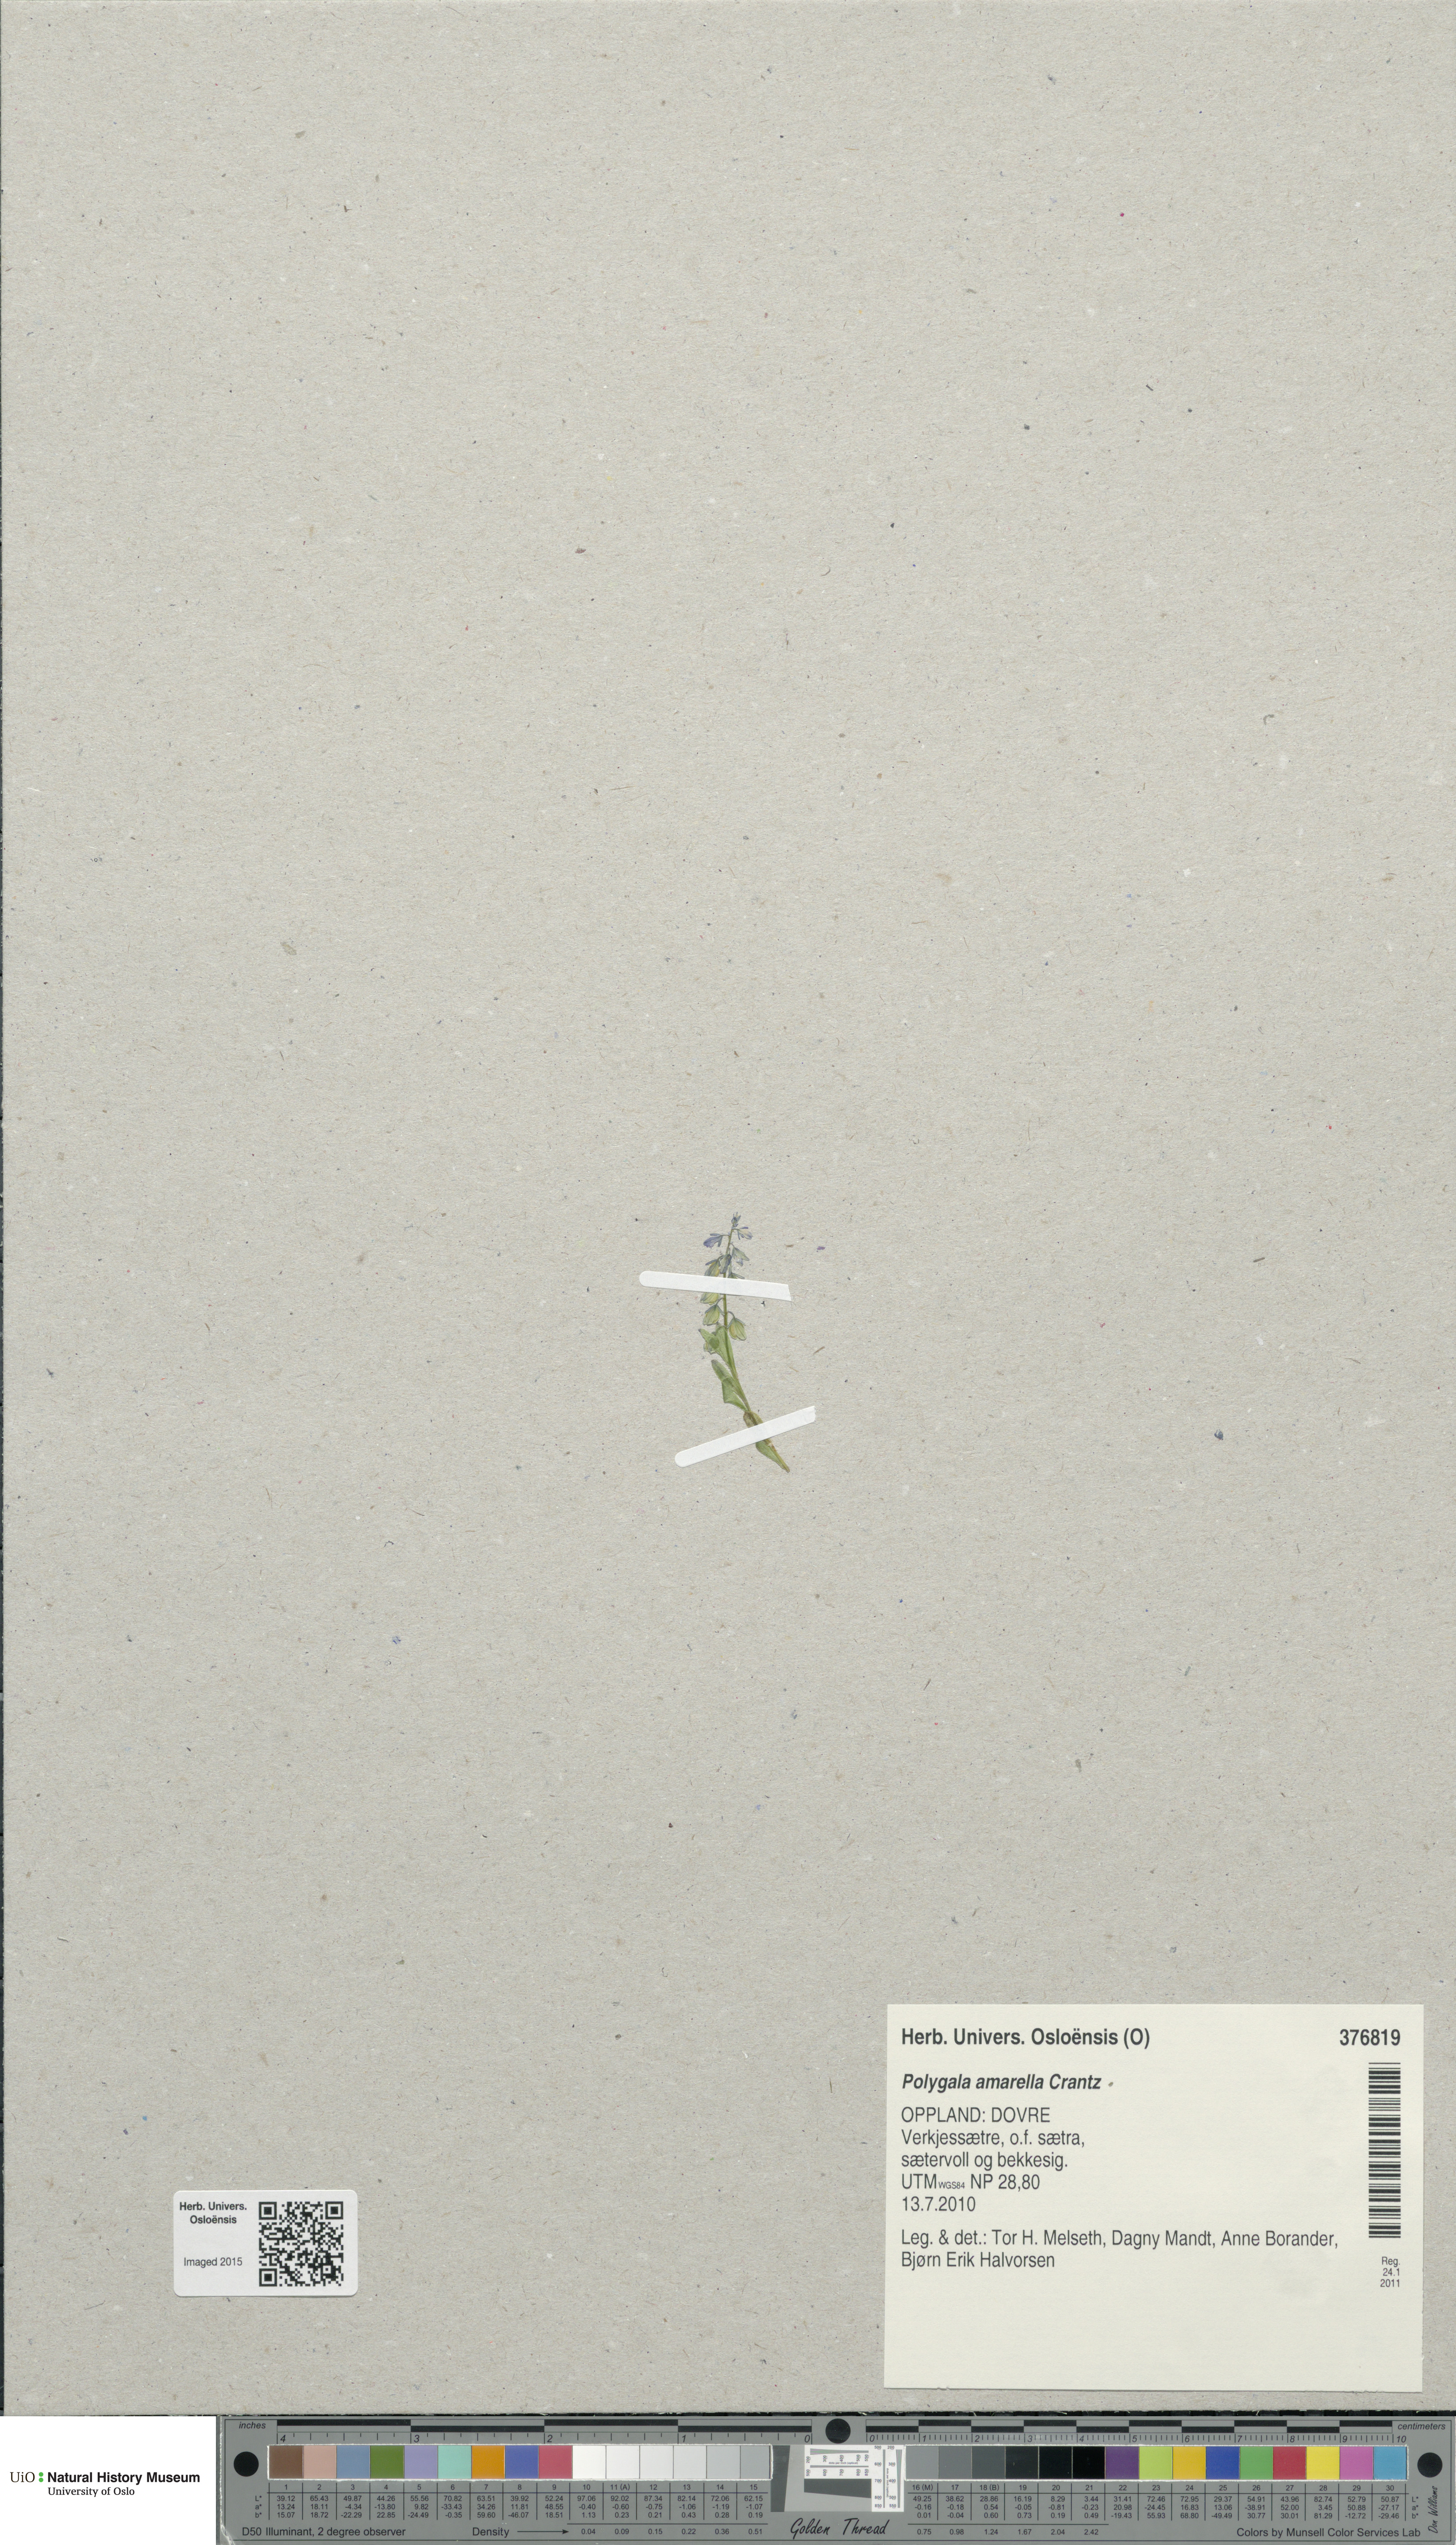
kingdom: Plantae
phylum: Tracheophyta
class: Magnoliopsida
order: Fabales
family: Polygalaceae
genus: Polygala
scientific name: Polygala amarella
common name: Dwarf milkwort
